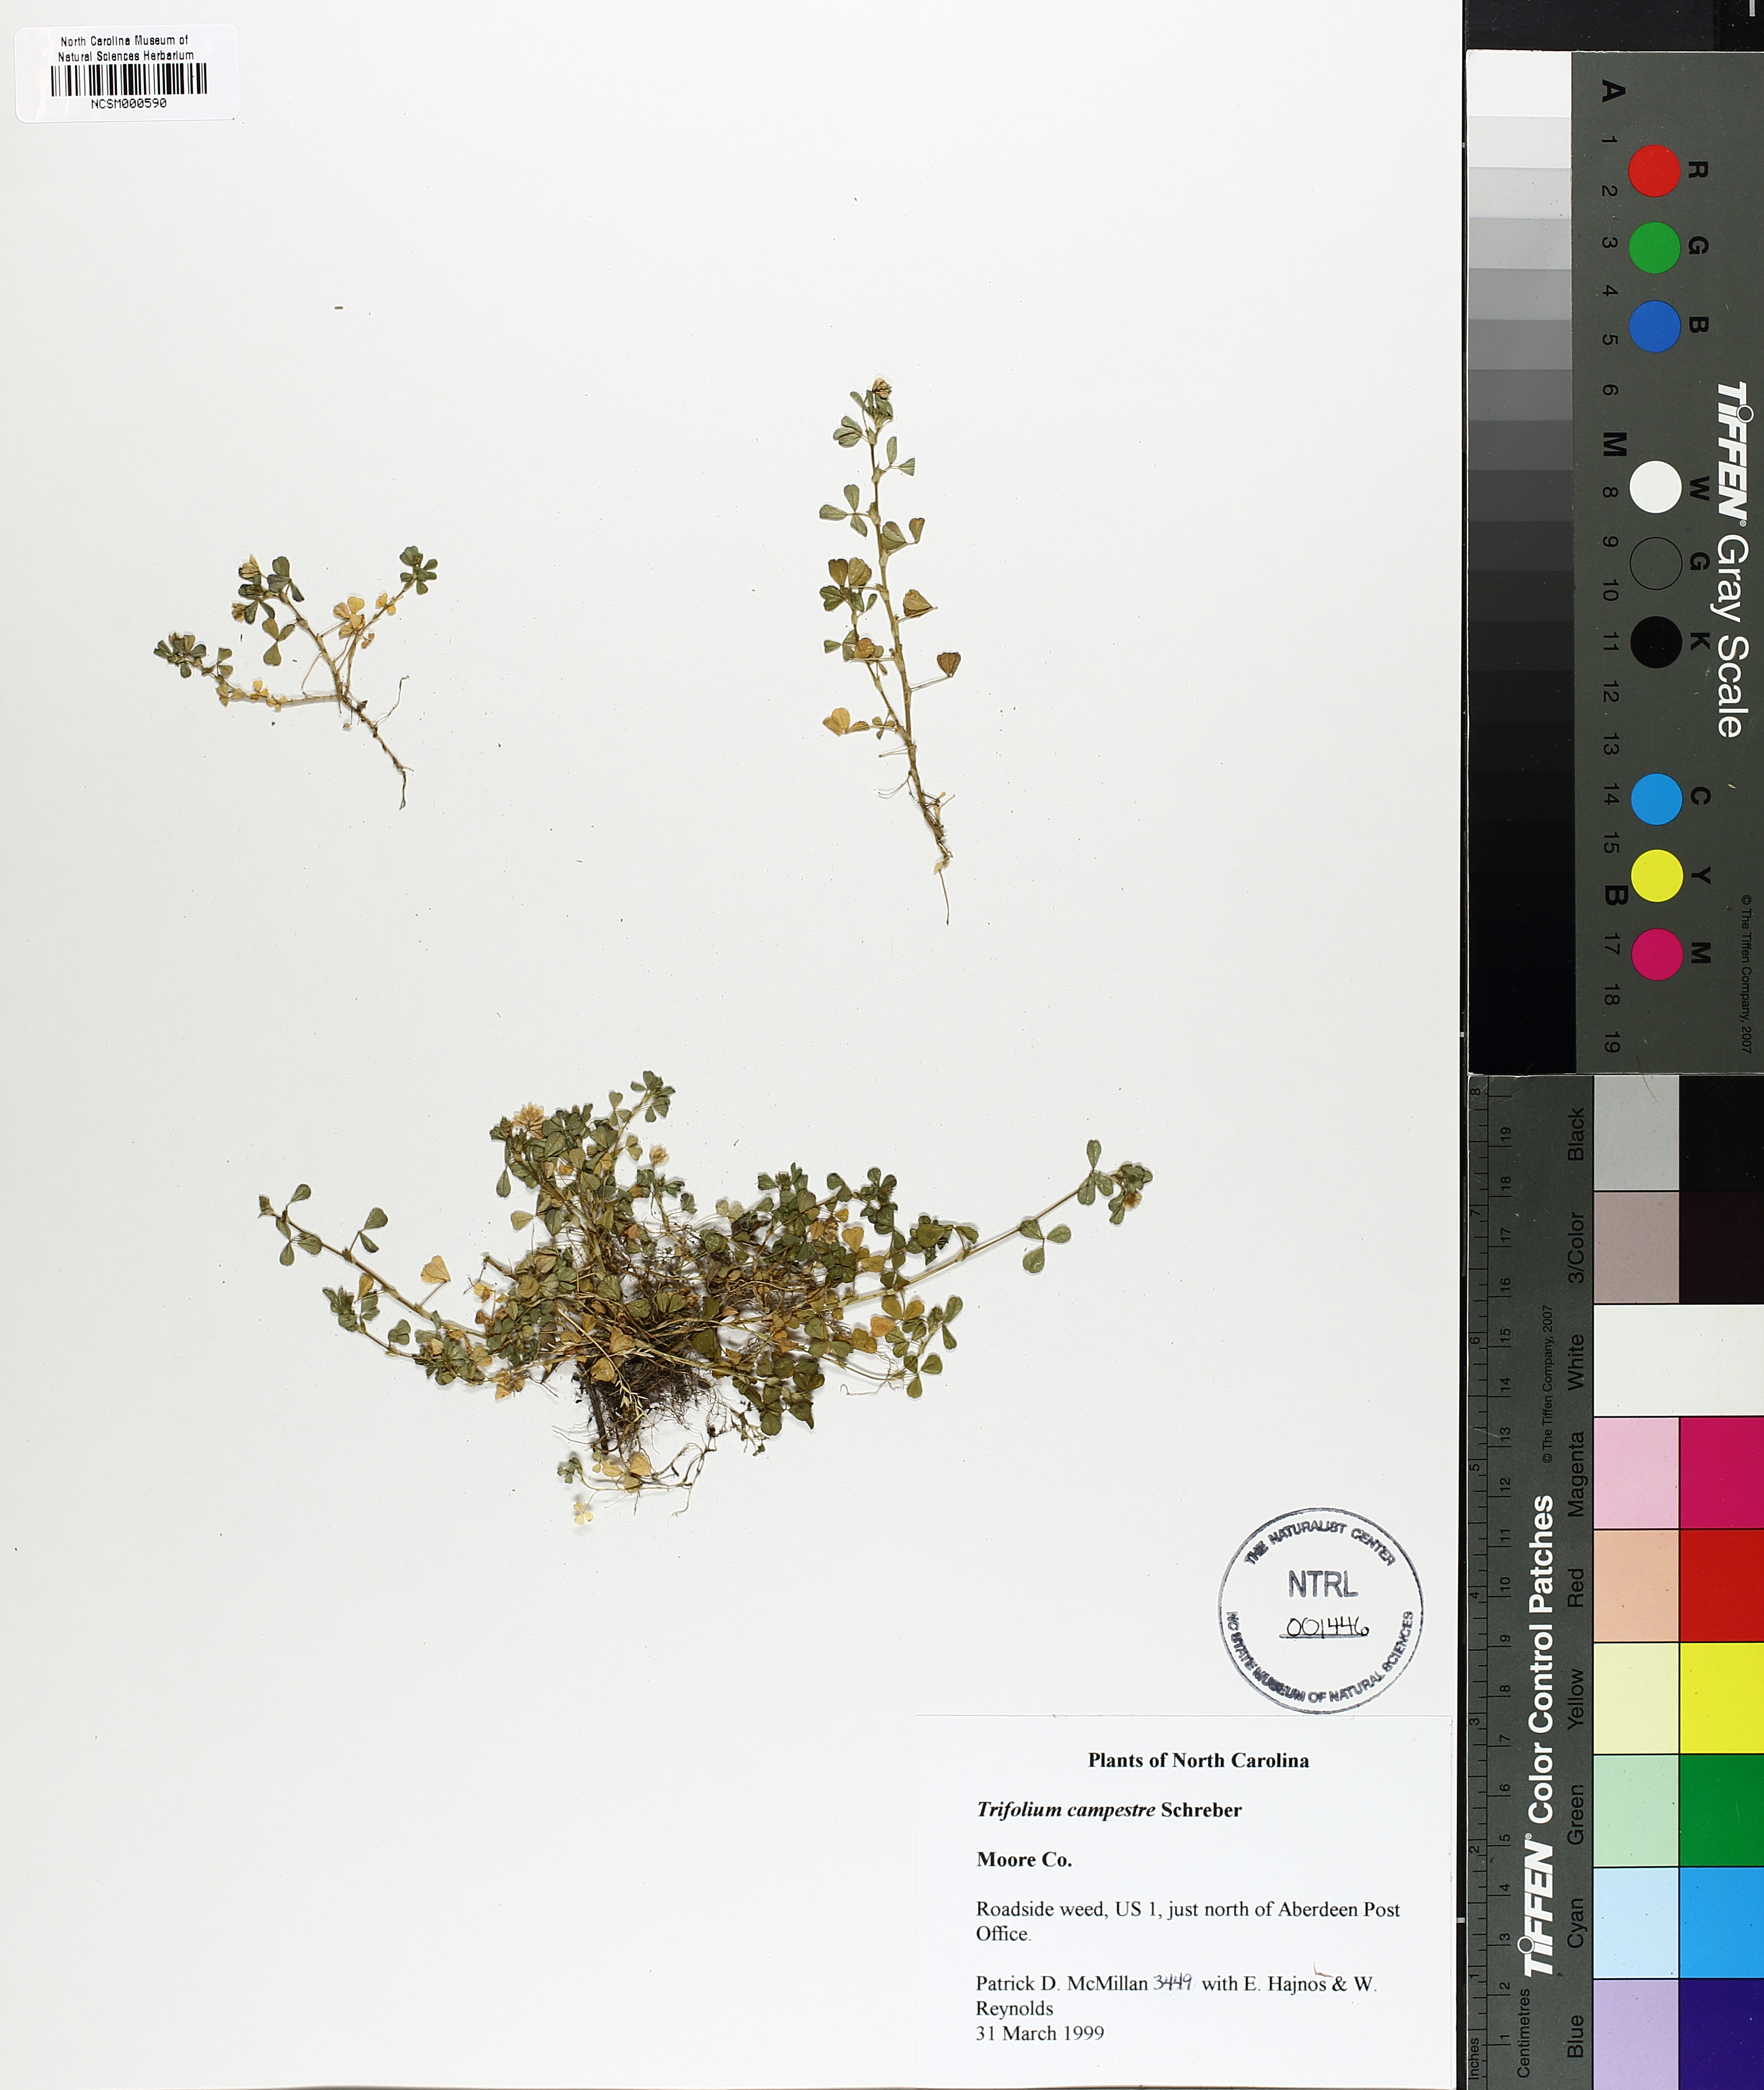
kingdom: Plantae
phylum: Tracheophyta
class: Magnoliopsida
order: Fabales
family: Fabaceae
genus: Trifolium
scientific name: Trifolium campestre
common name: Field clover
